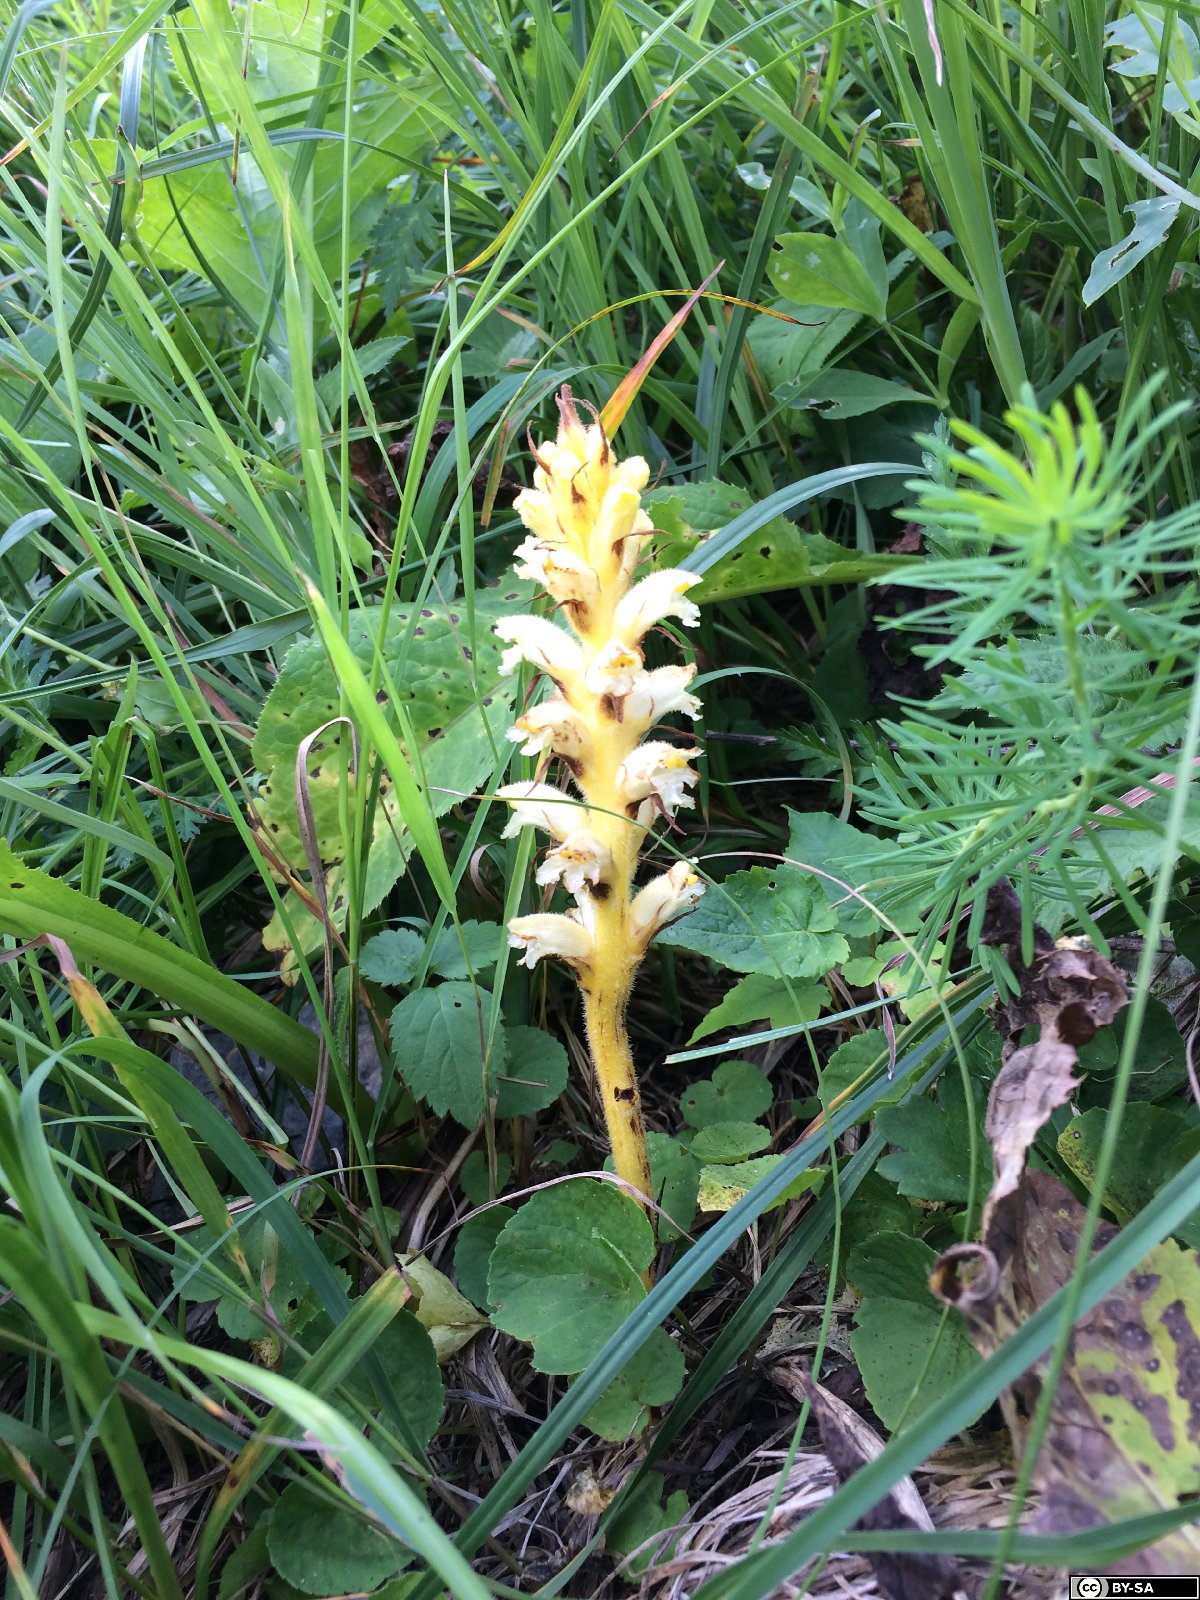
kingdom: Plantae
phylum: Tracheophyta
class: Magnoliopsida
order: Lamiales
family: Orobanchaceae
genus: Orobanche
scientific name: Orobanche lycoctoni
